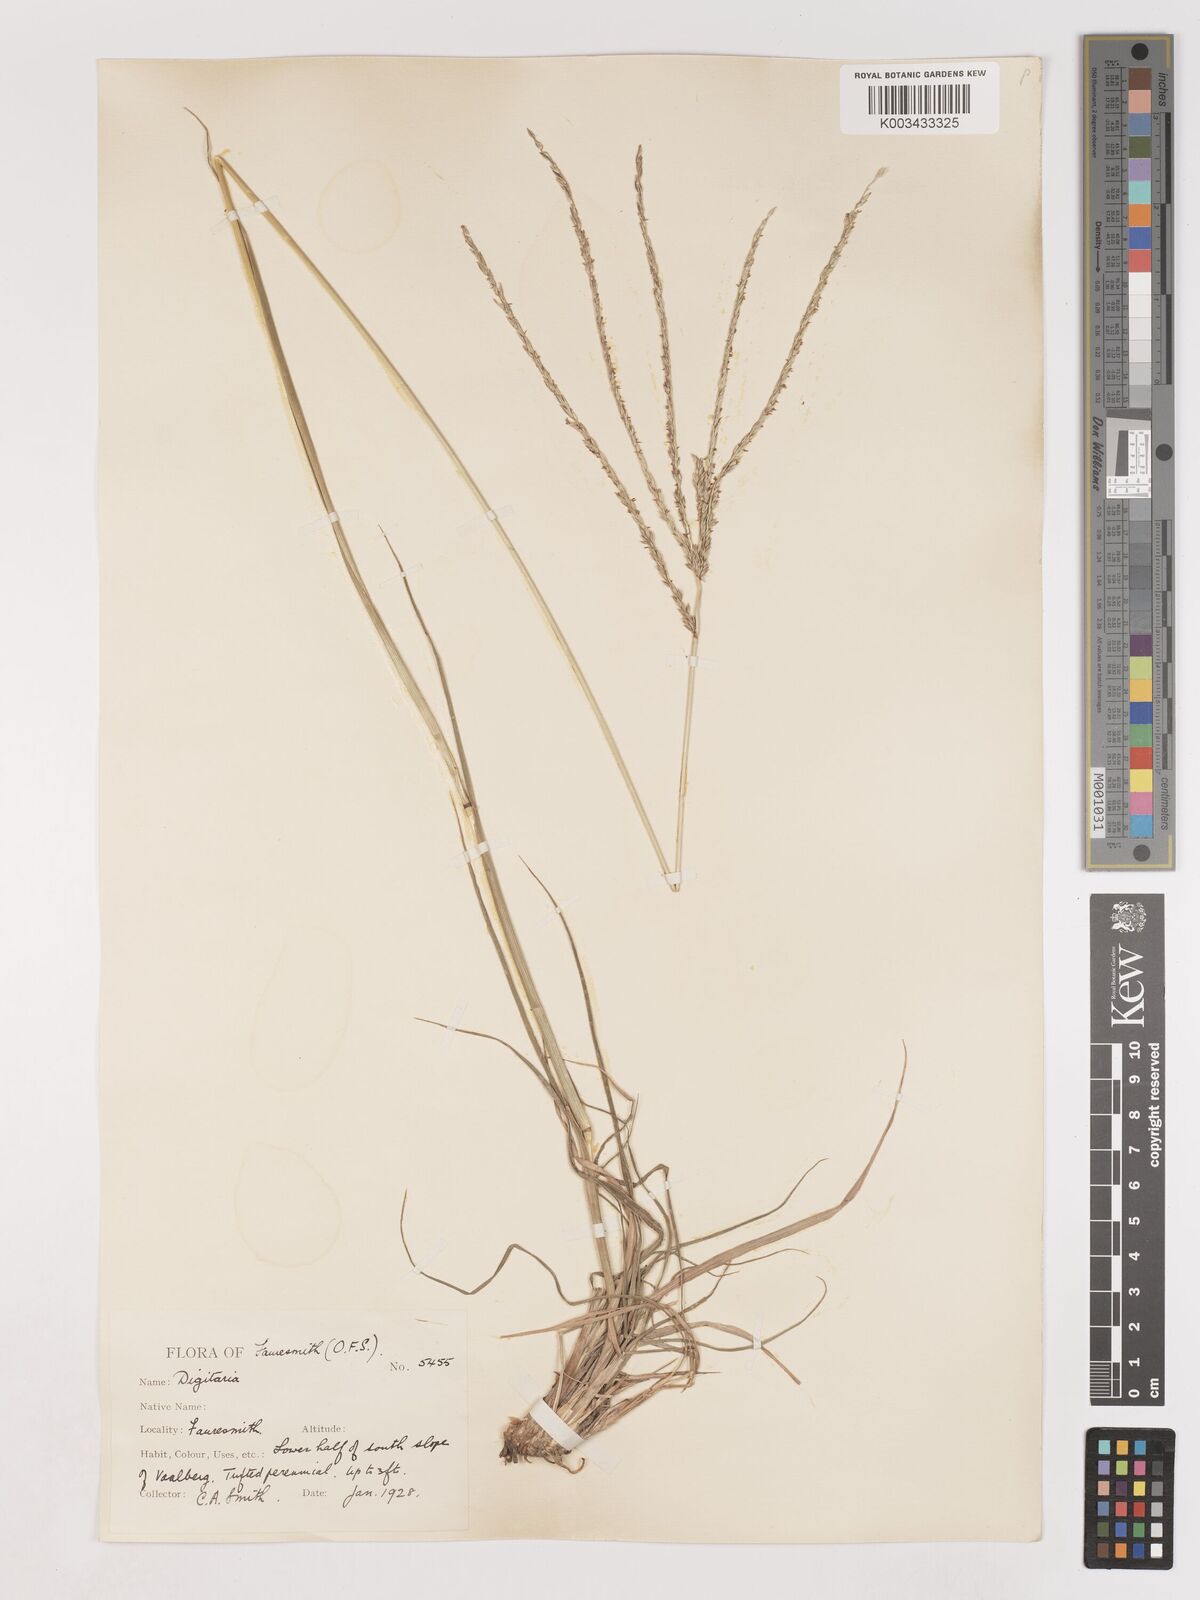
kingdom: Plantae
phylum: Tracheophyta
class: Liliopsida
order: Poales
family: Poaceae
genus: Digitaria
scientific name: Digitaria eriantha
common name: Digitgrass
